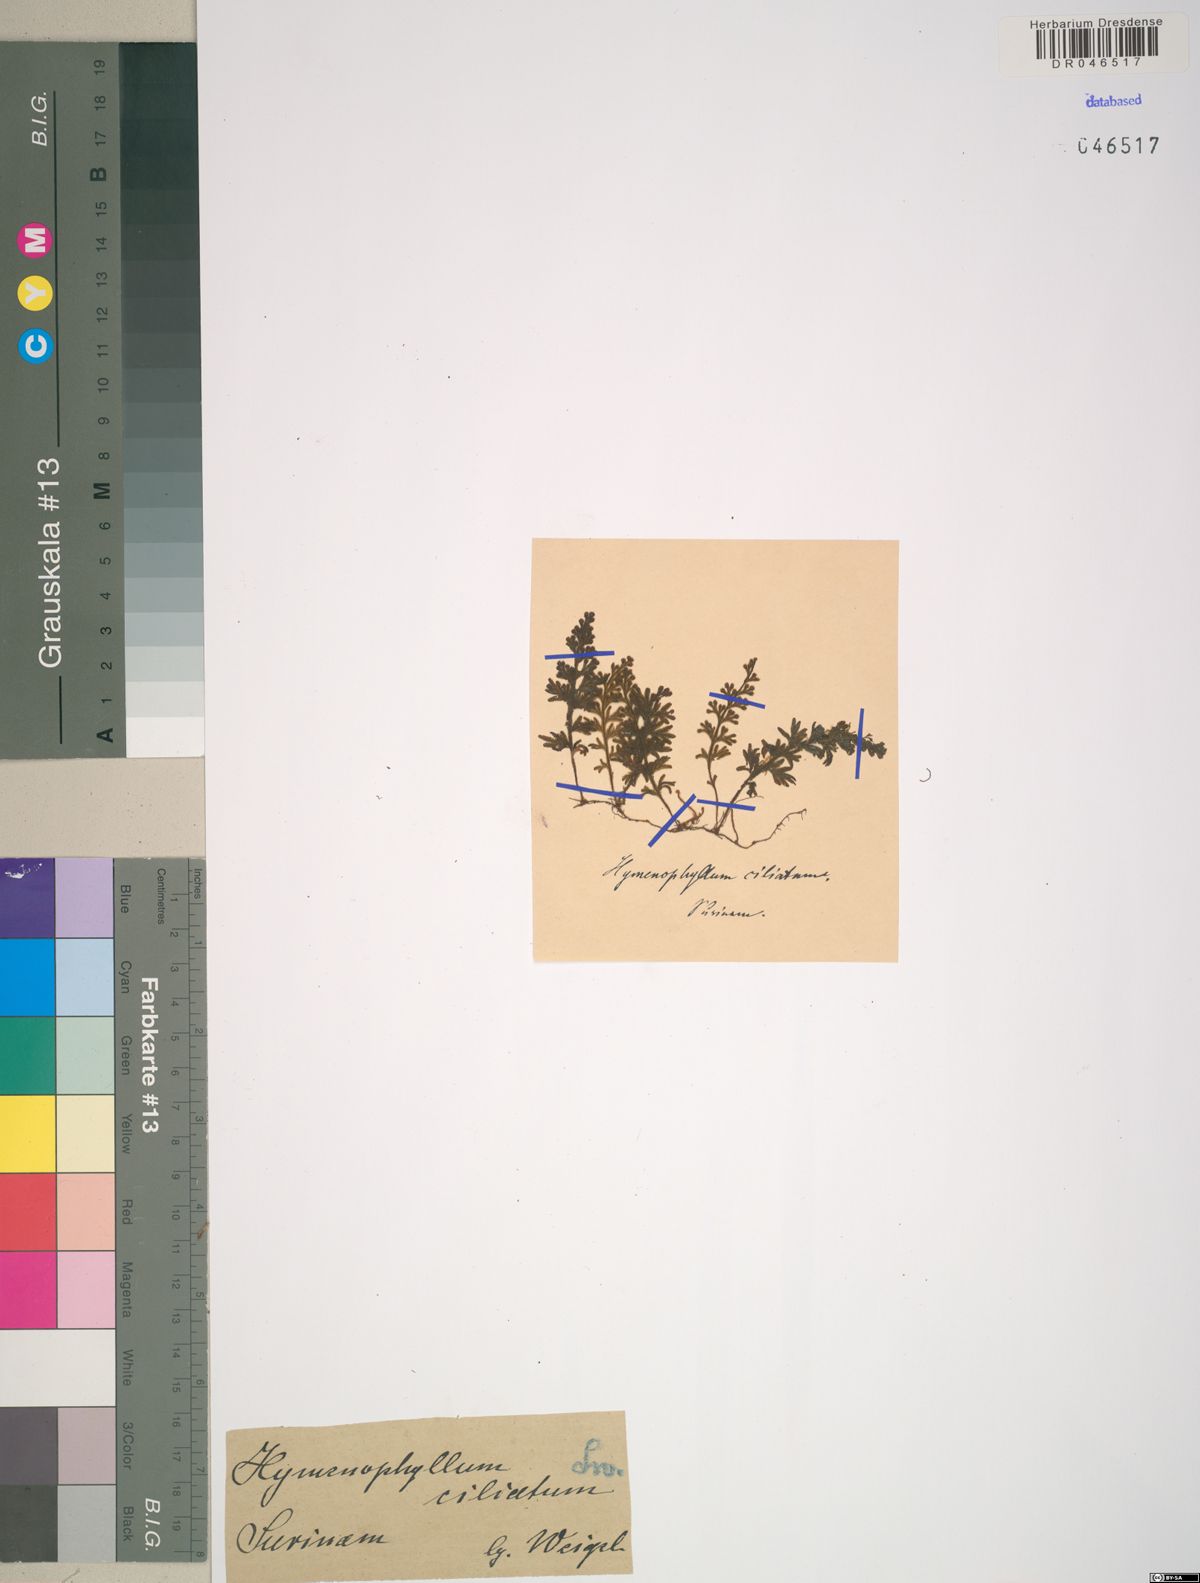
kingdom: Plantae
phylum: Tracheophyta
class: Polypodiopsida
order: Hymenophyllales
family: Hymenophyllaceae
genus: Hymenophyllum
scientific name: Hymenophyllum hirsutum
